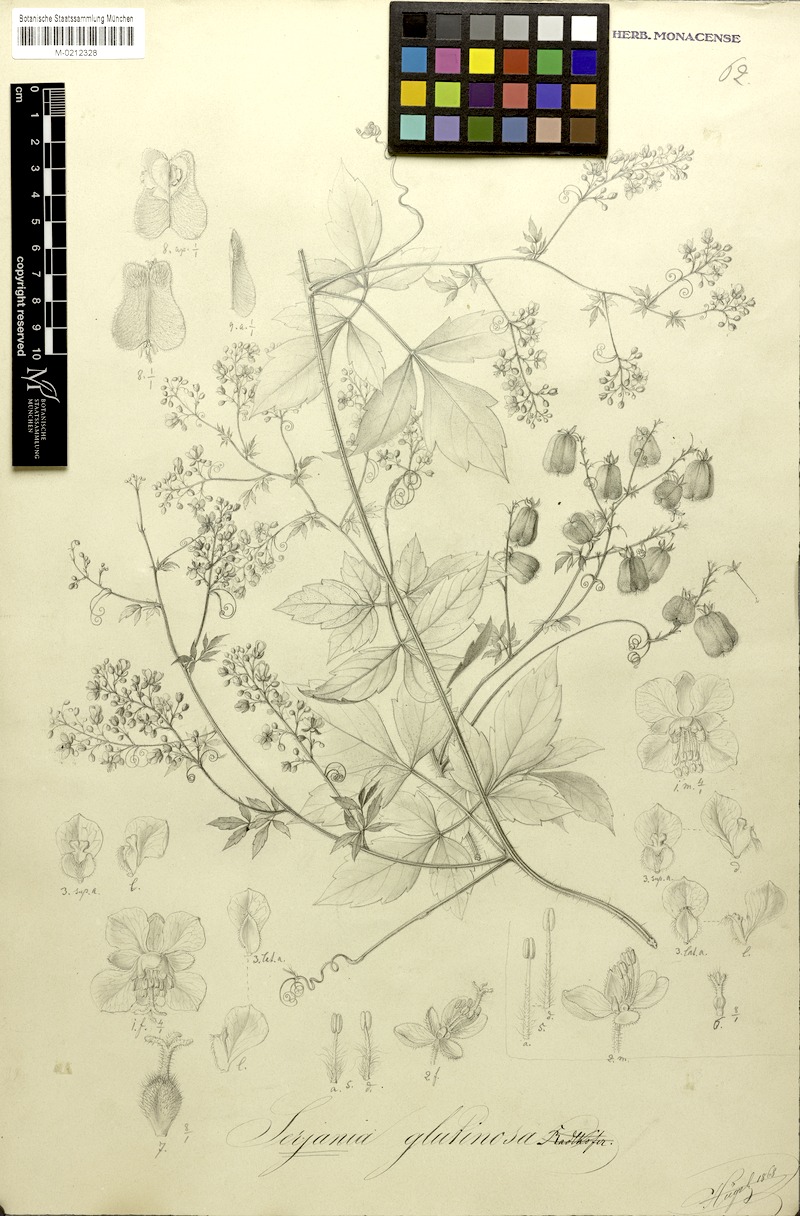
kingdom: Plantae
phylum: Tracheophyta
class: Magnoliopsida
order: Sapindales
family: Sapindaceae
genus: Serjania
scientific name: Serjania glutinosa
